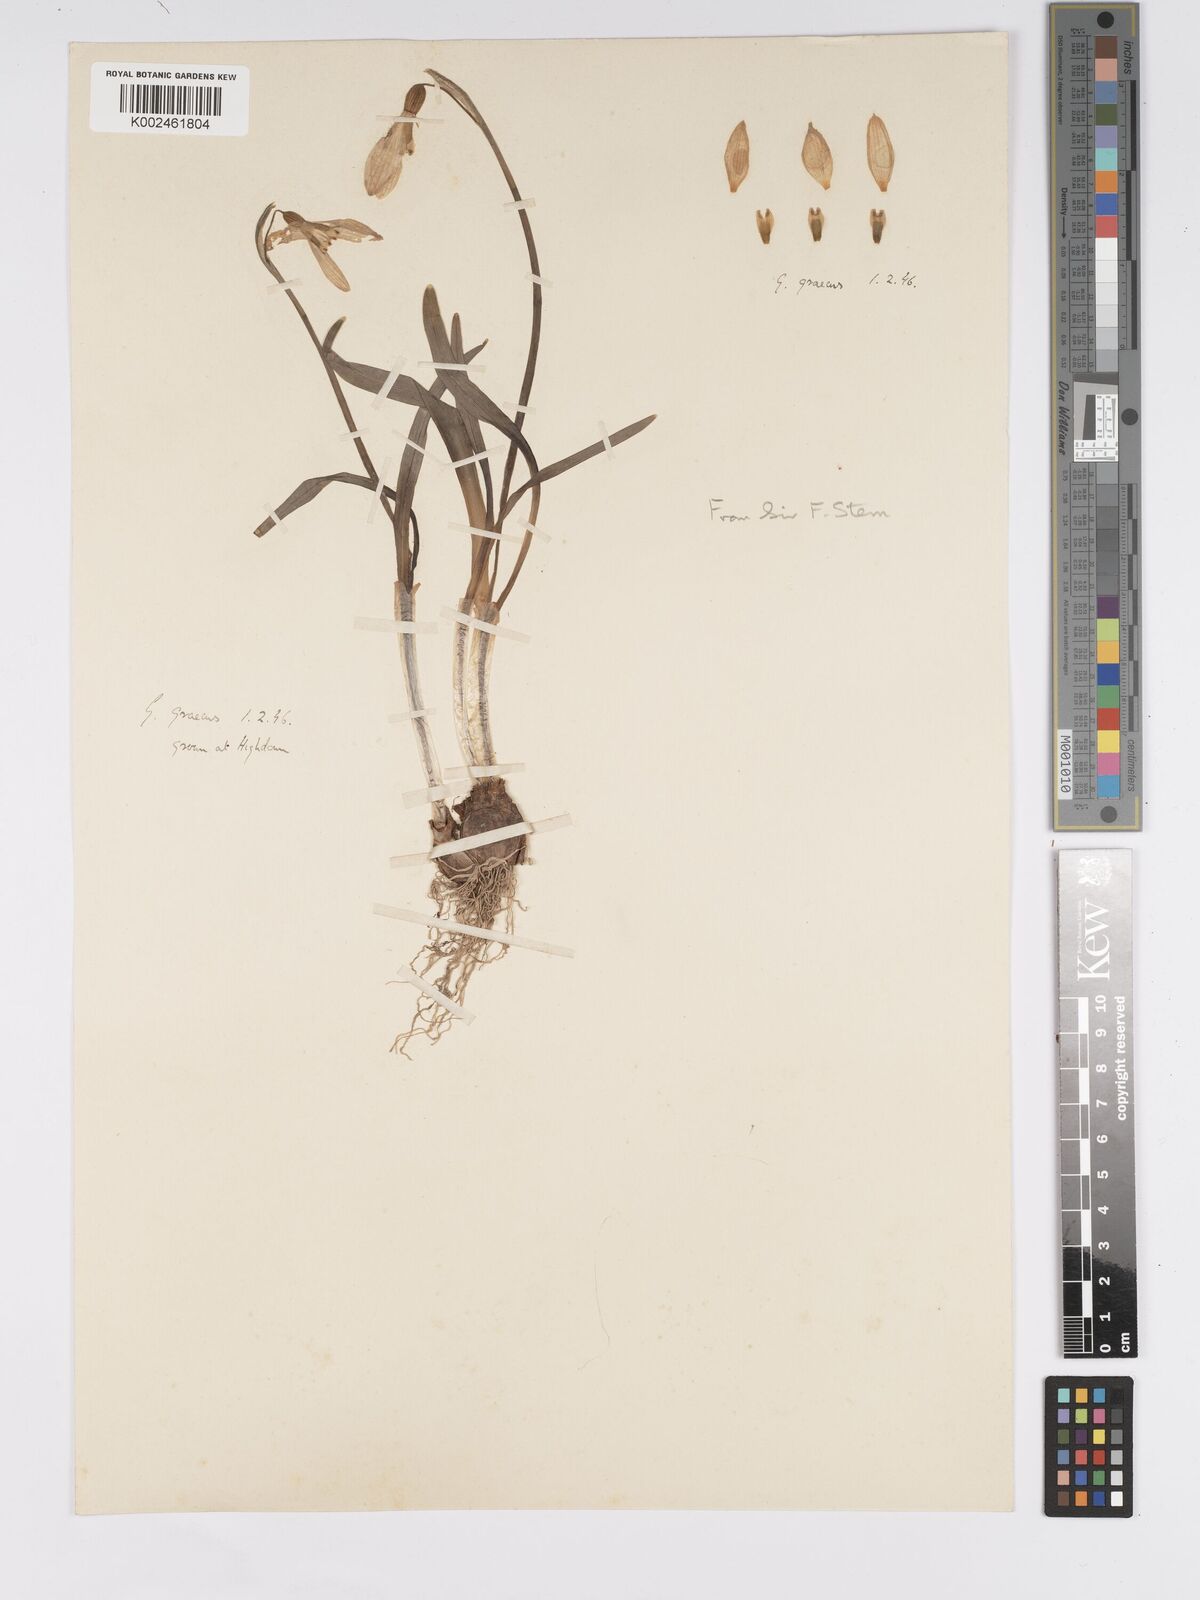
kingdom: Plantae
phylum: Tracheophyta
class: Liliopsida
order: Asparagales
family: Amaryllidaceae
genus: Galanthus
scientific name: Galanthus
